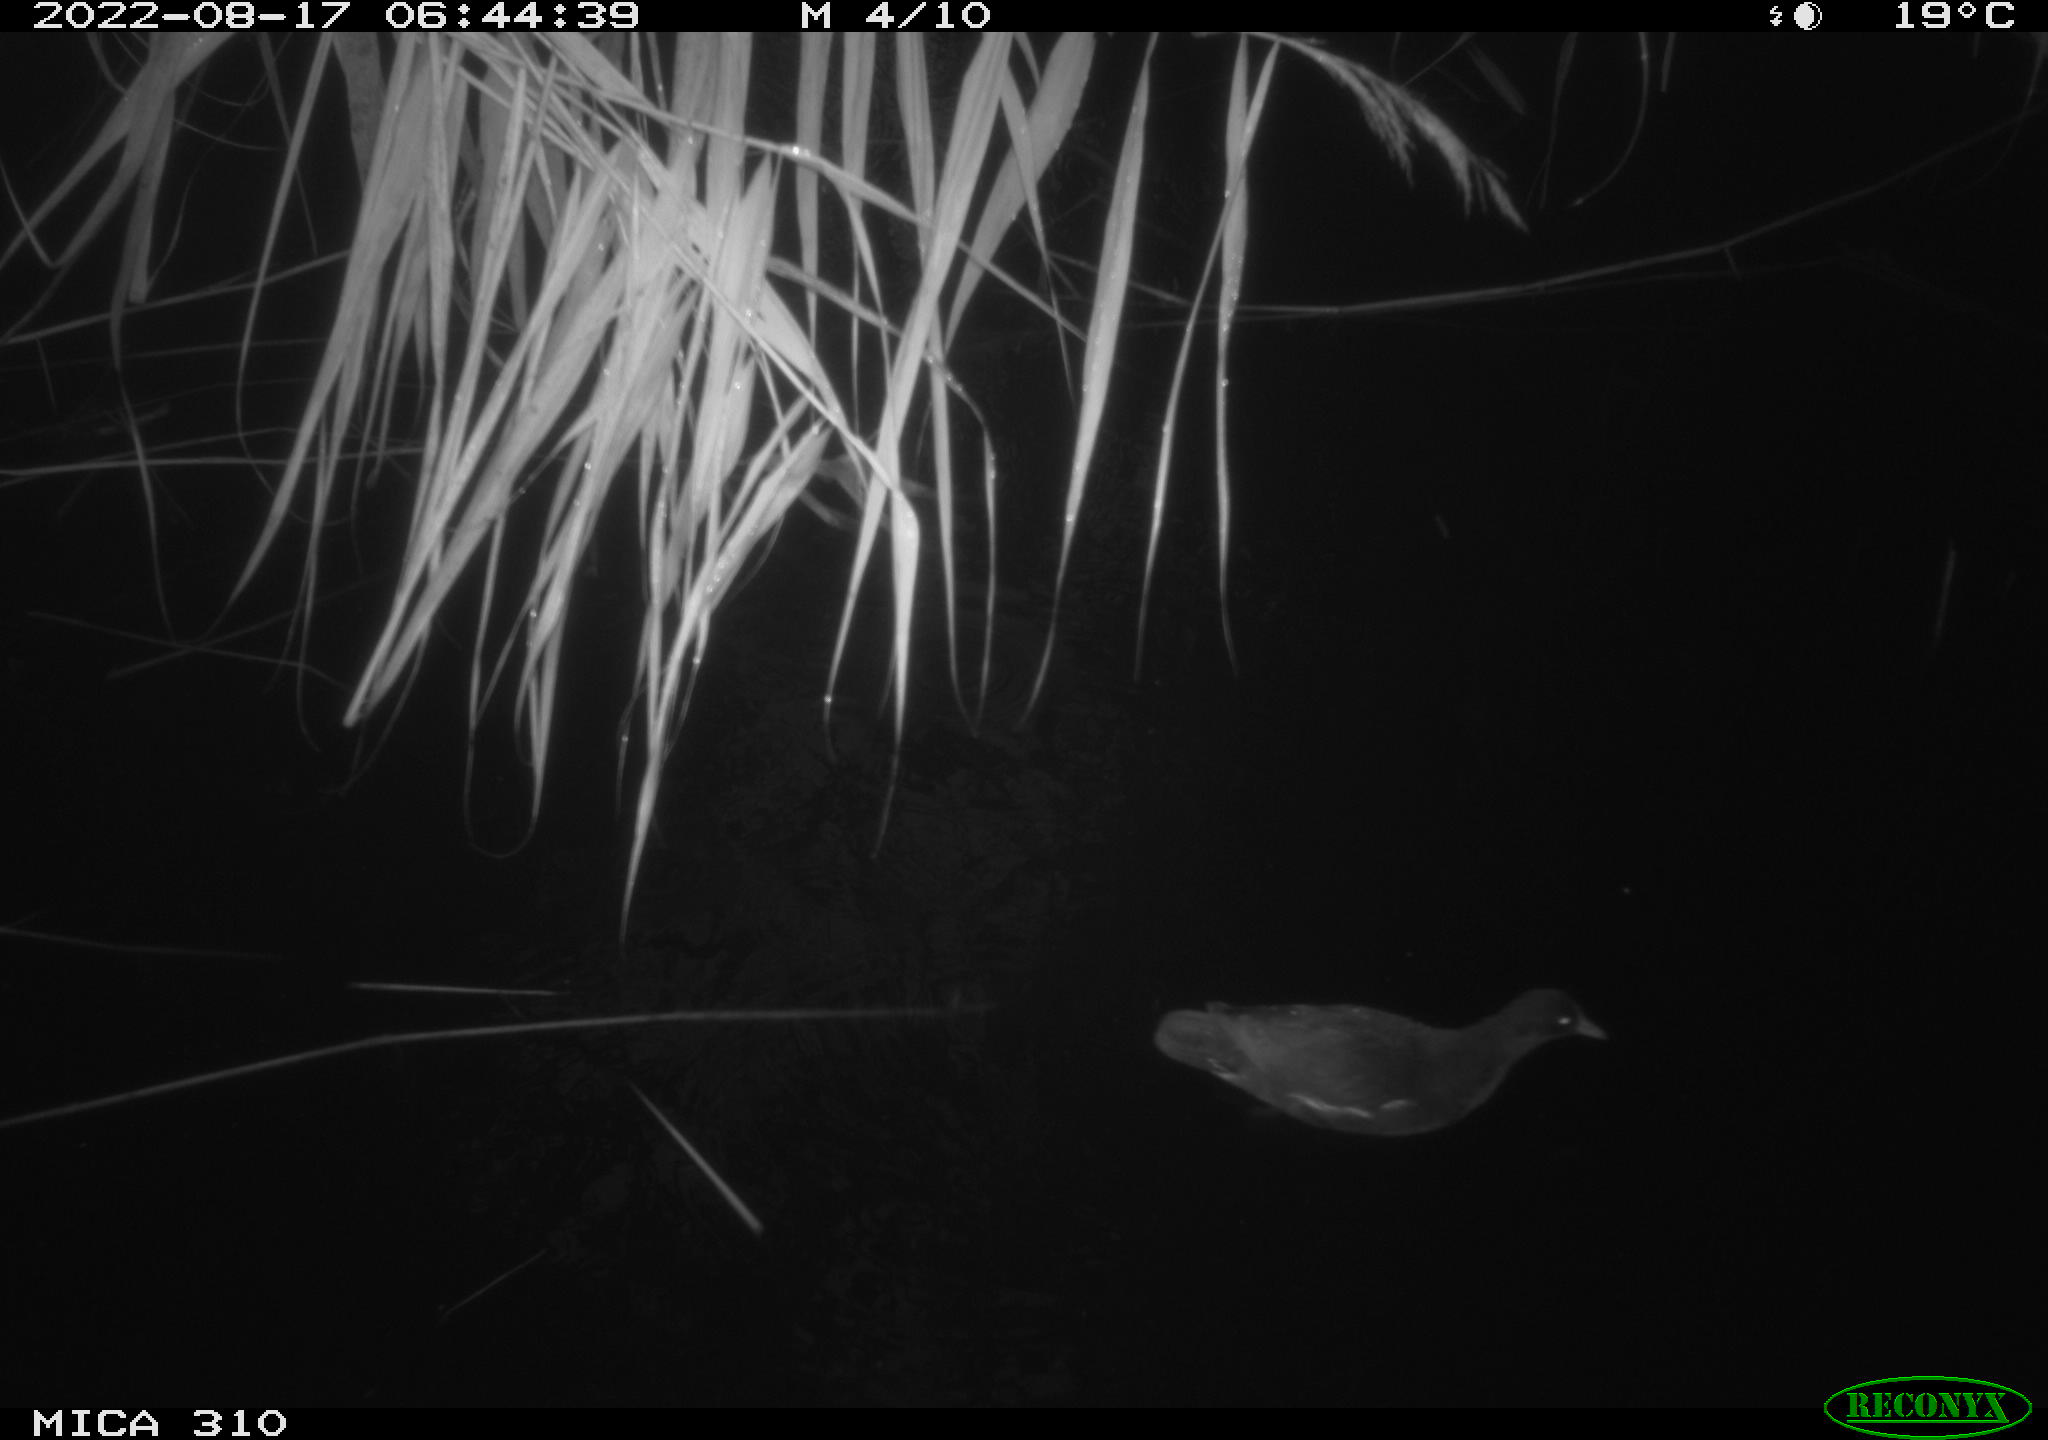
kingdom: Animalia
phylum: Chordata
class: Aves
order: Gruiformes
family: Rallidae
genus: Gallinula
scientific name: Gallinula chloropus
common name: Common moorhen
